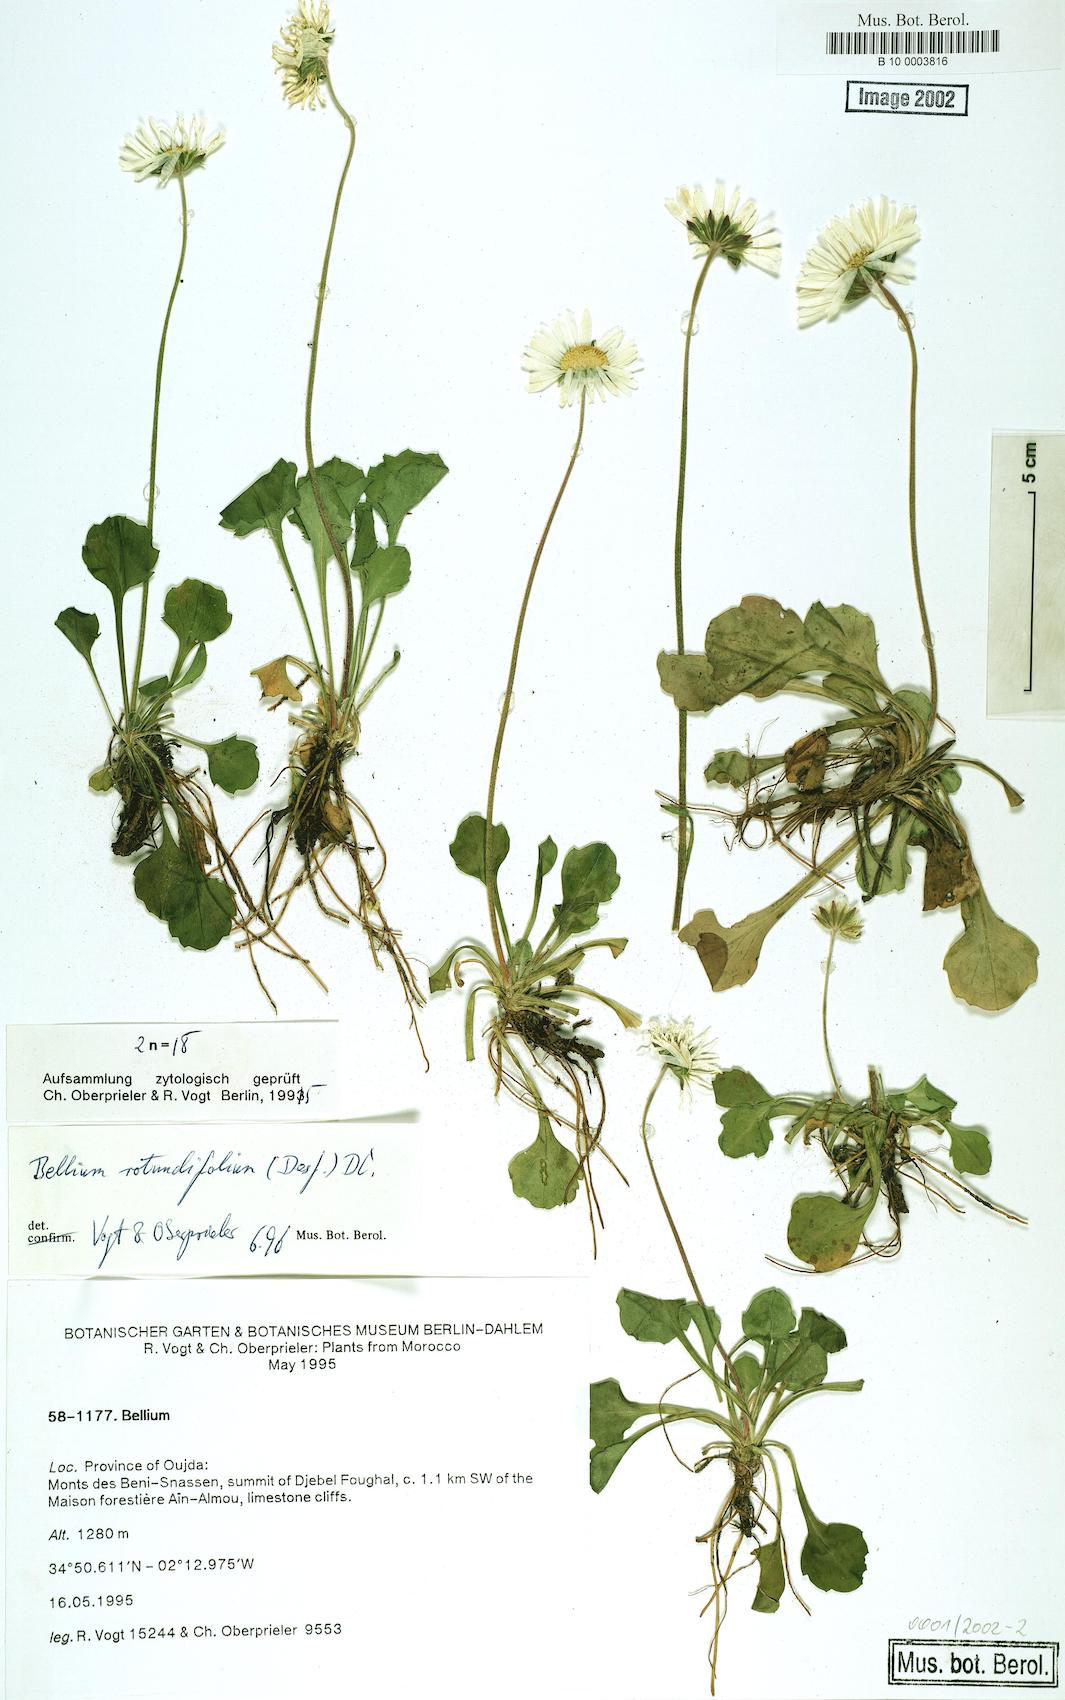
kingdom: Plantae
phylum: Tracheophyta
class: Magnoliopsida
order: Asterales
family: Asteraceae
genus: Bellis
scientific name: Bellis rotundifolia
